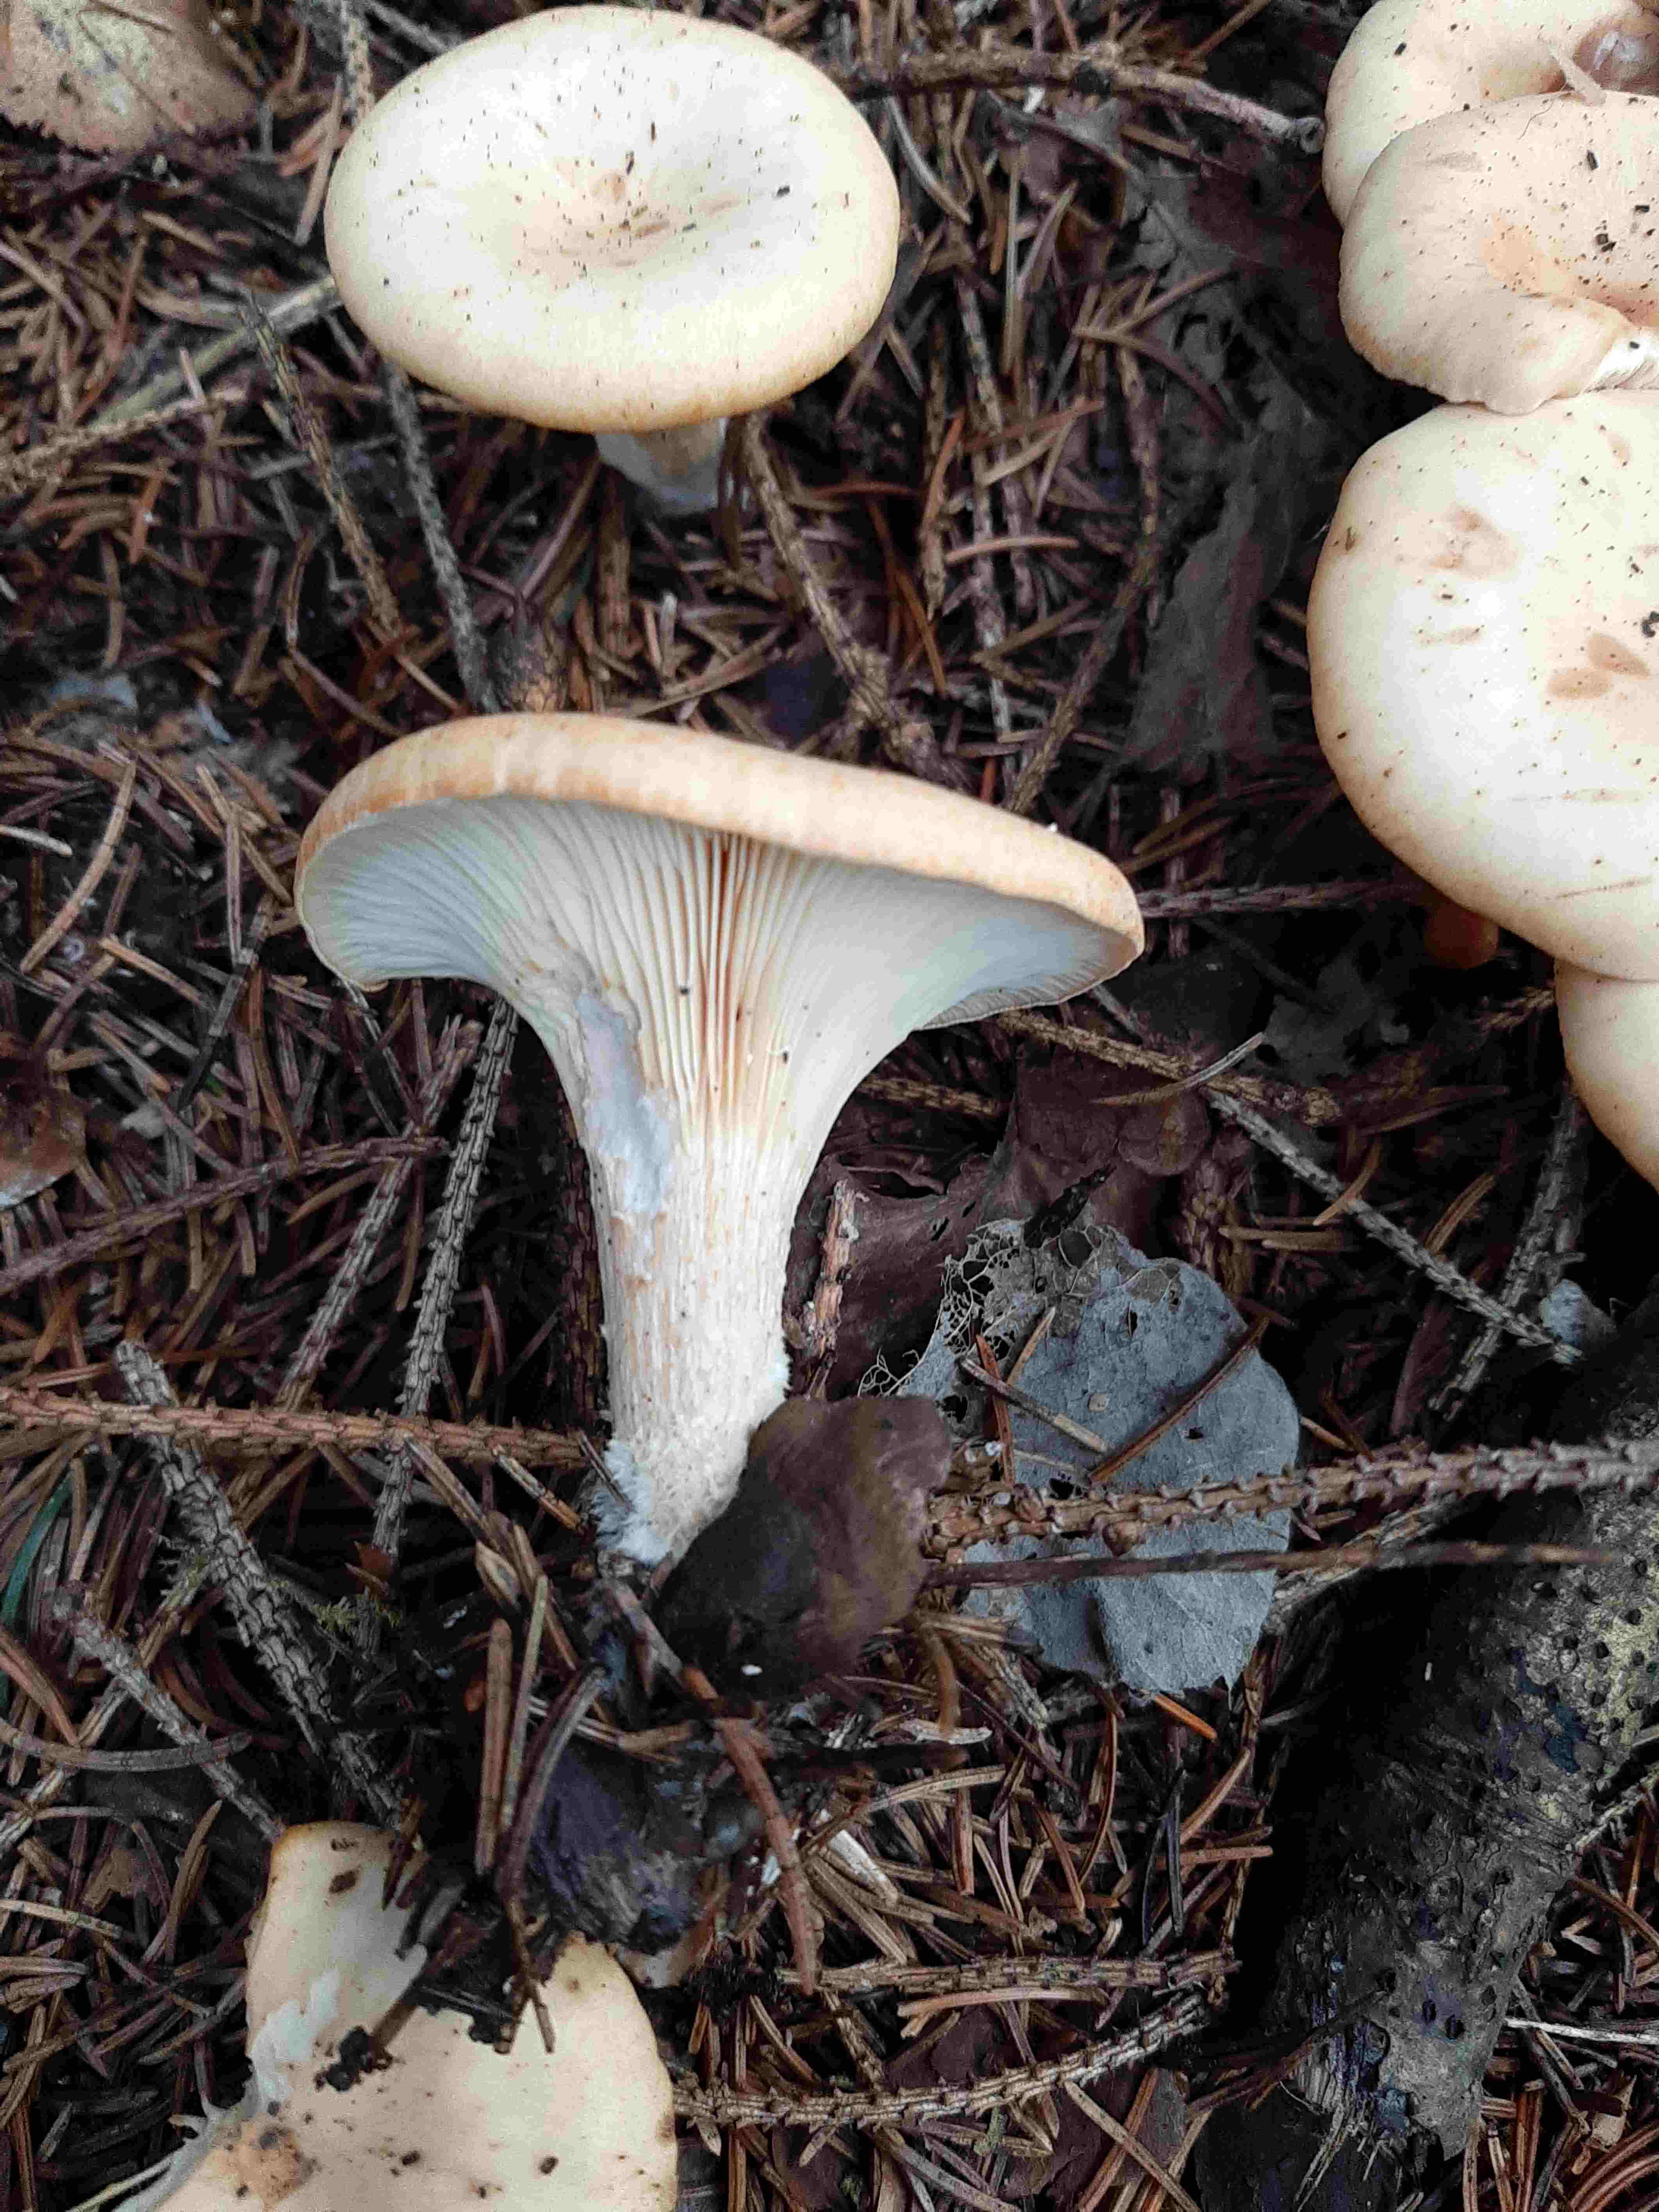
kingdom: Fungi
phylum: Basidiomycota
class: Agaricomycetes
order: Agaricales
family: Tricholomataceae
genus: Paralepista
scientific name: Paralepista gilva
